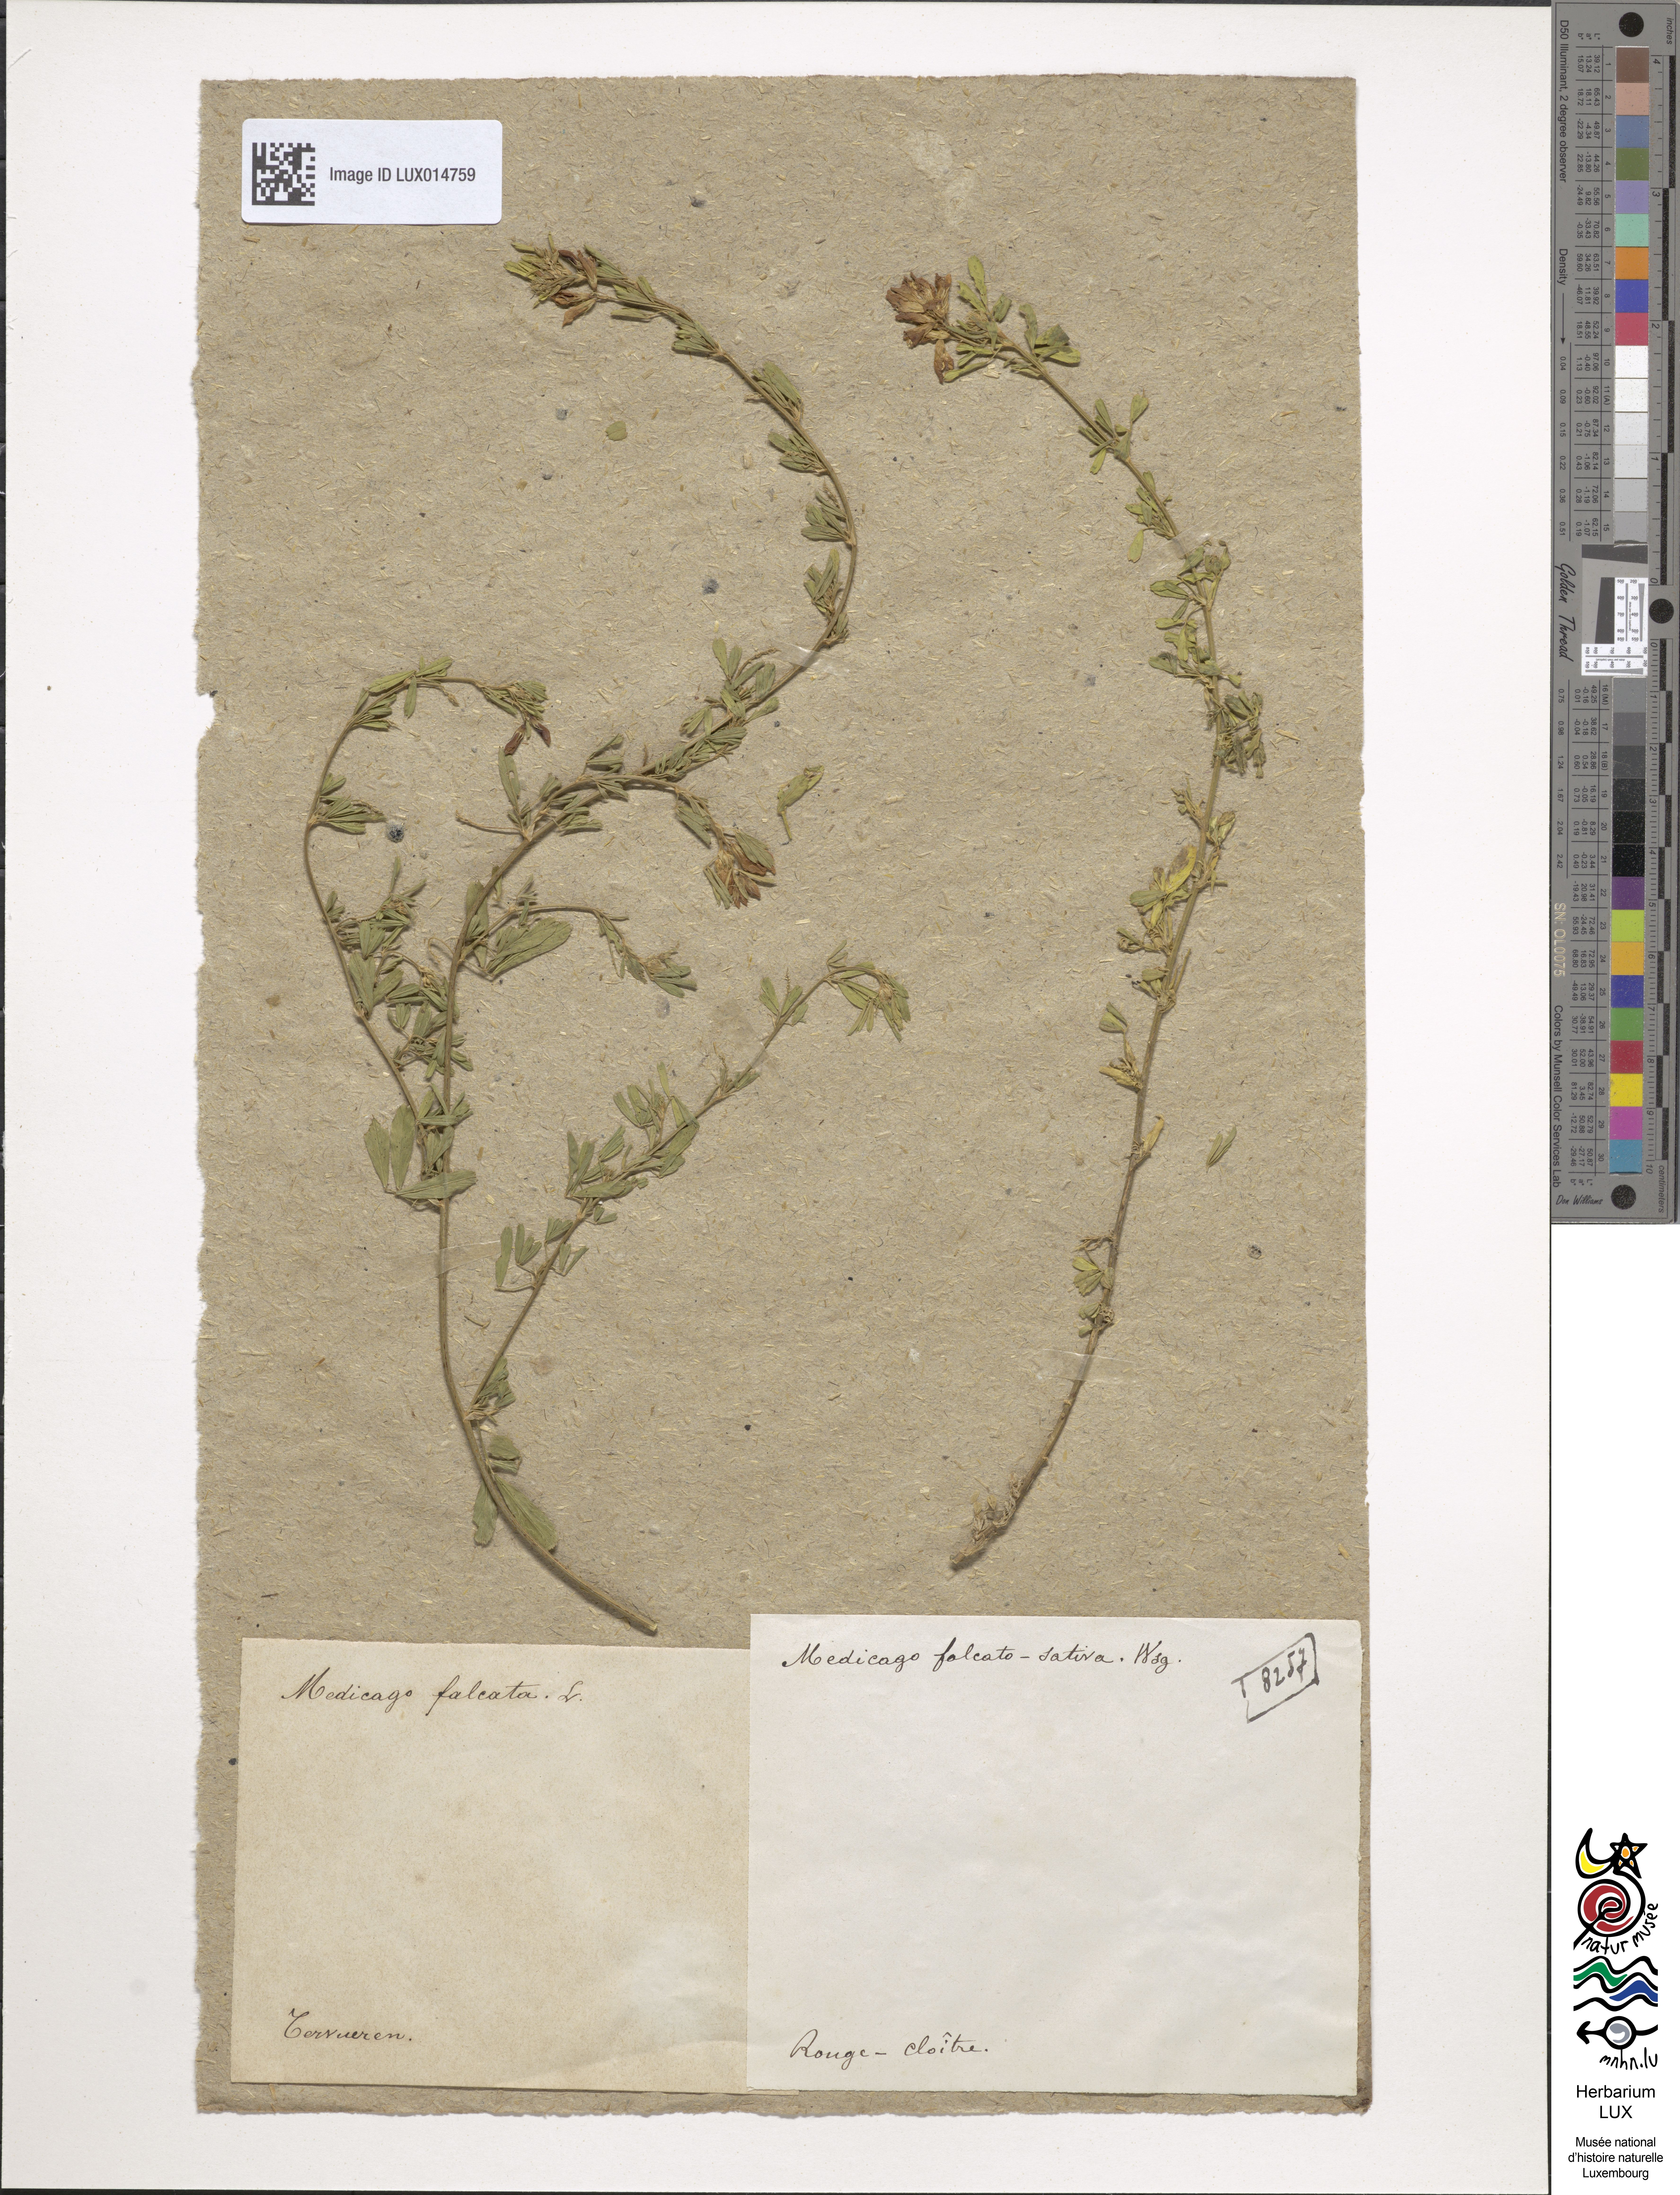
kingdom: Plantae
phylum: Tracheophyta
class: Magnoliopsida
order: Fabales
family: Fabaceae
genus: Medicago
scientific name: Medicago varia
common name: Sand lucerne
